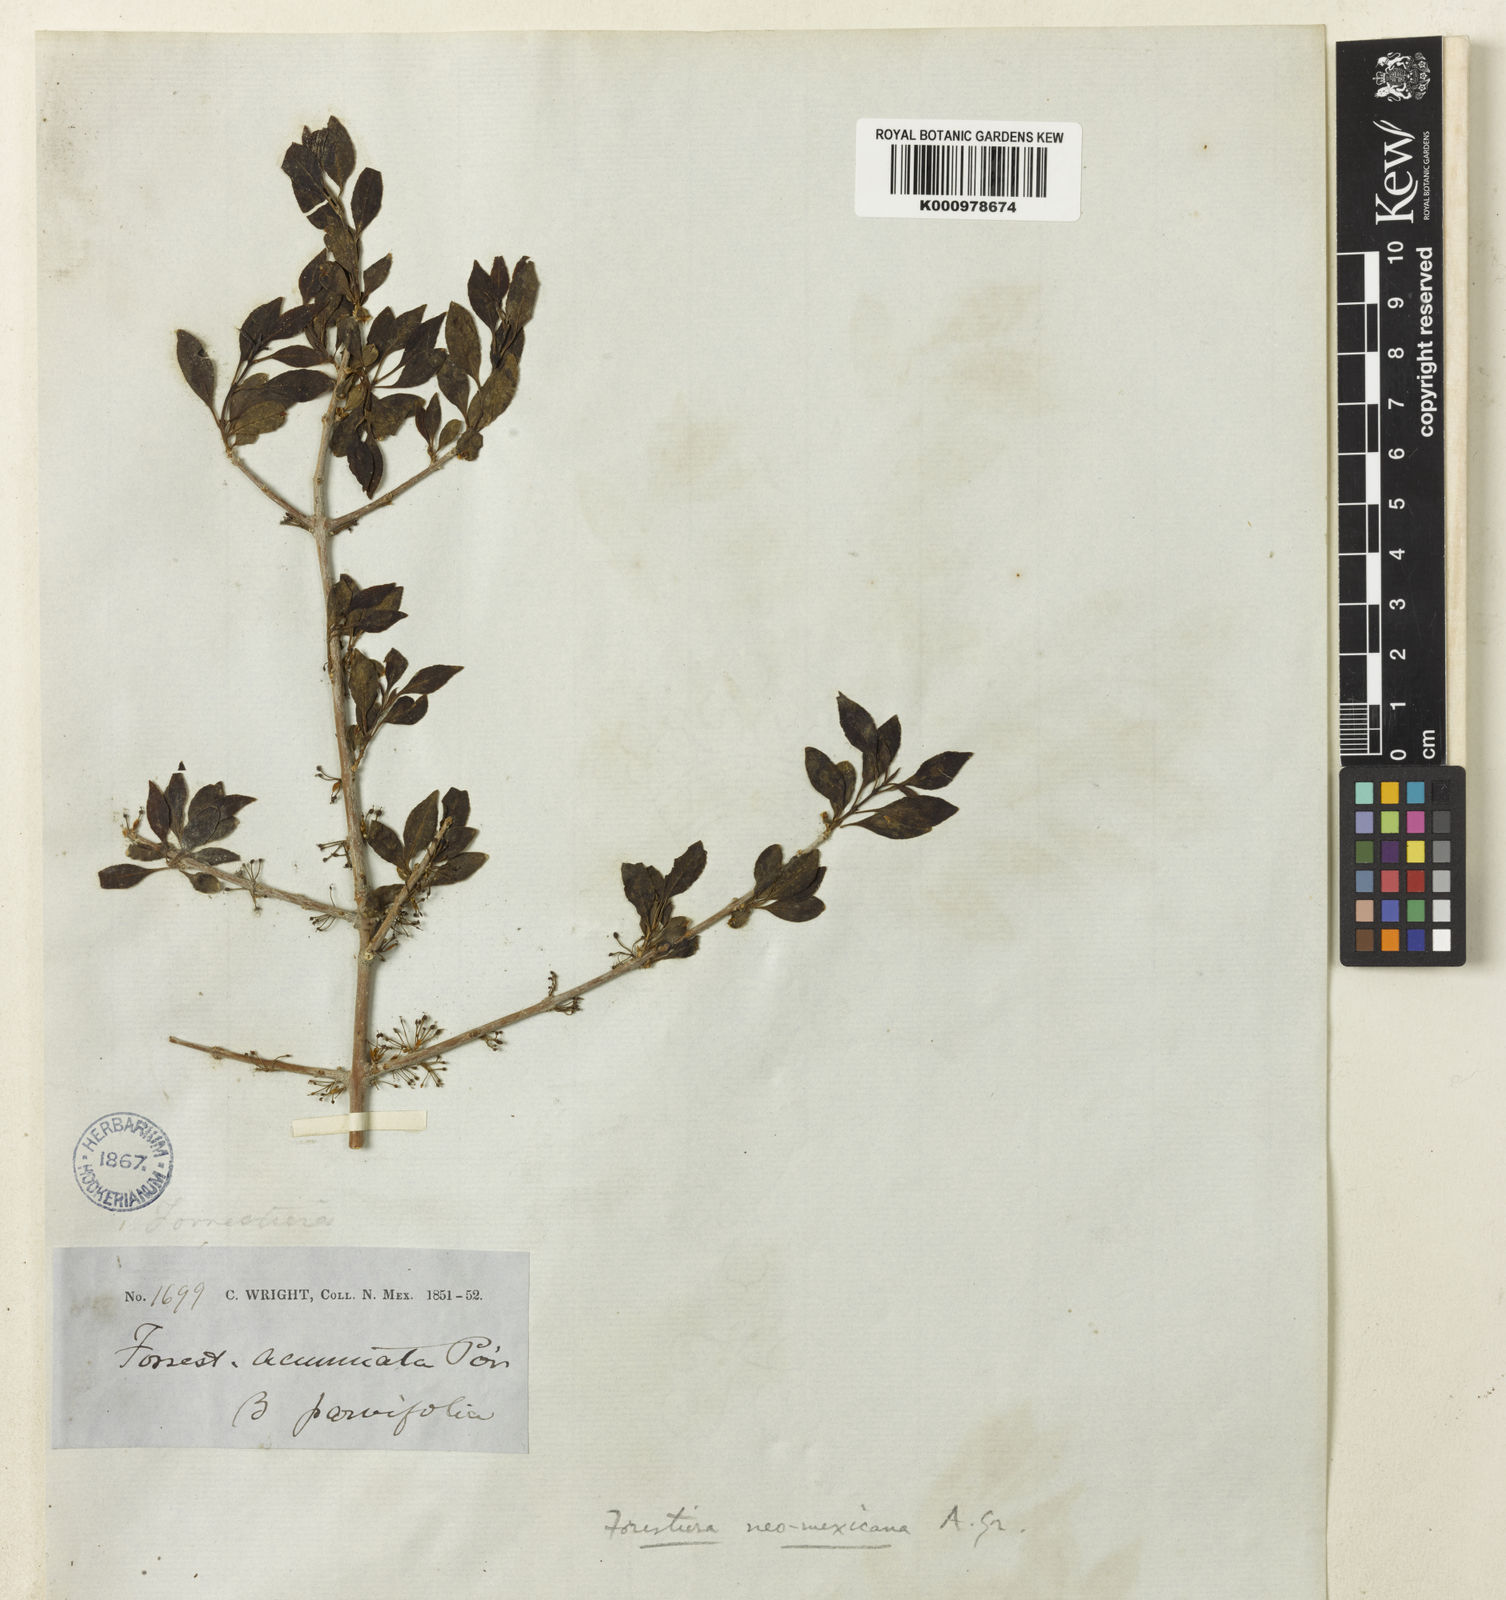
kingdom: Plantae
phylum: Tracheophyta
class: Magnoliopsida
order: Lamiales
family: Oleaceae
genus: Forestiera
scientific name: Forestiera pubescens
